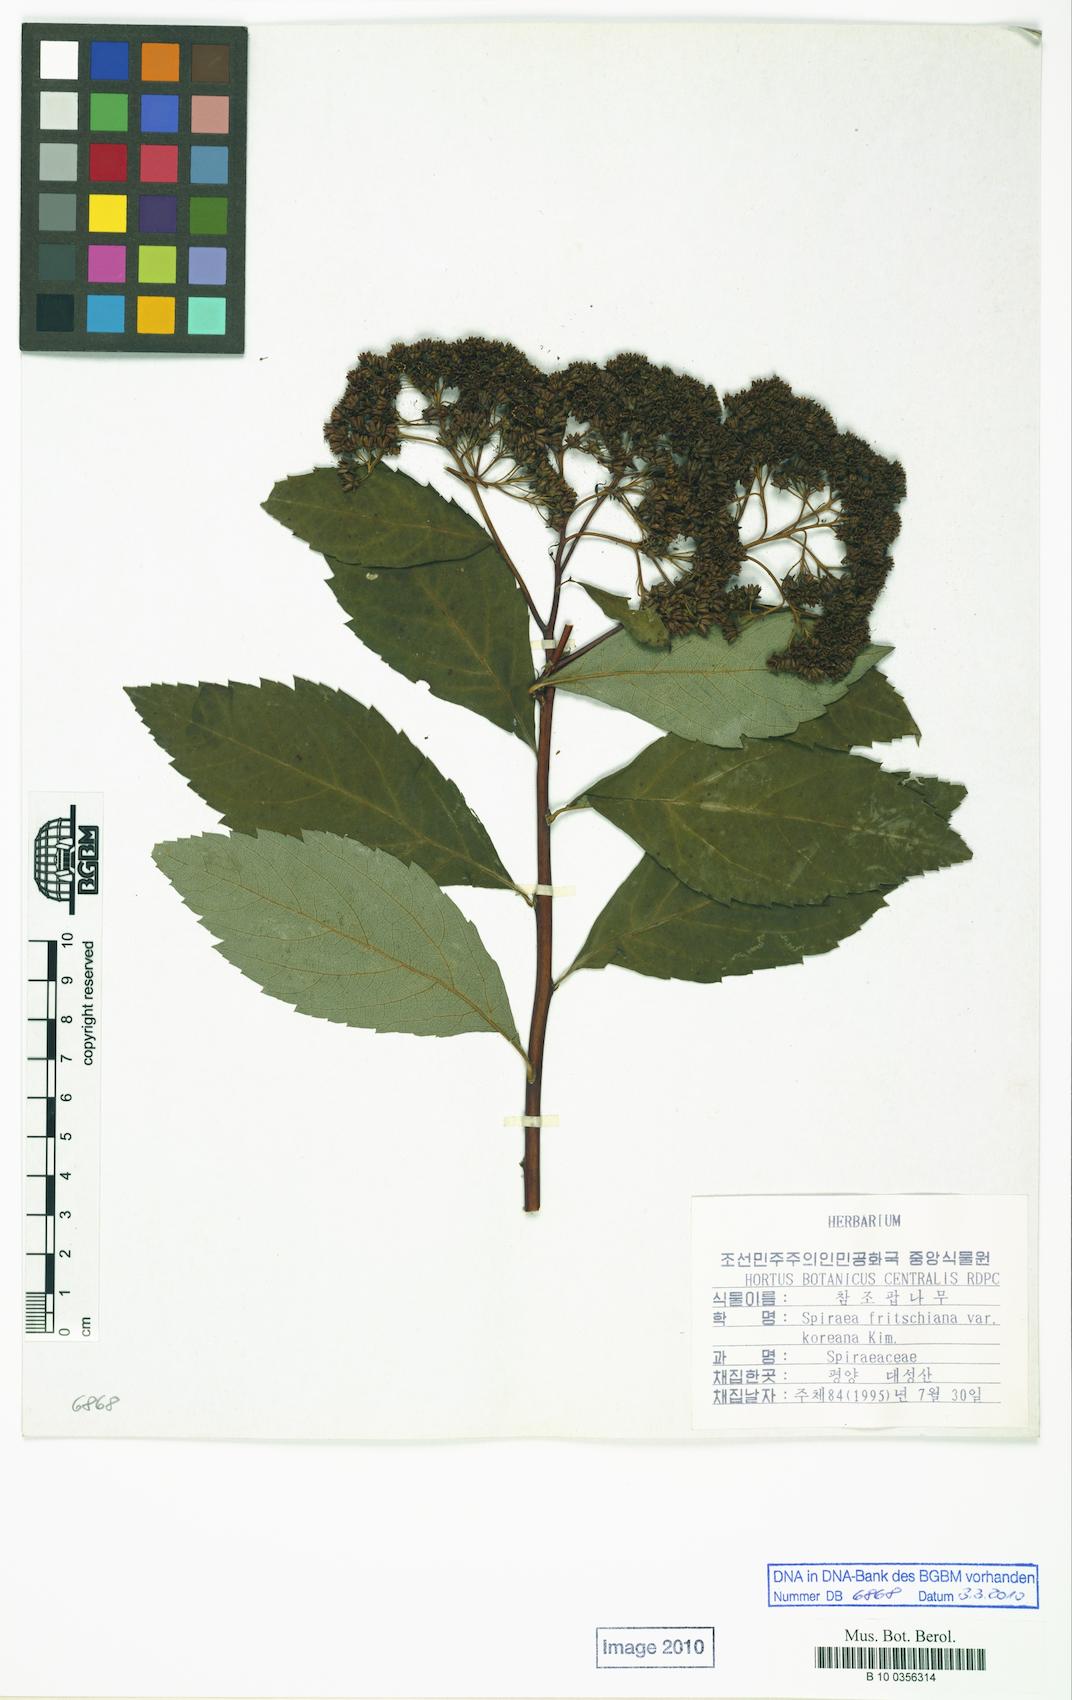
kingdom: Plantae
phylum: Tracheophyta
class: Magnoliopsida
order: Rosales
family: Rosaceae
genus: Spiraea
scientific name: Spiraea fritschiana
